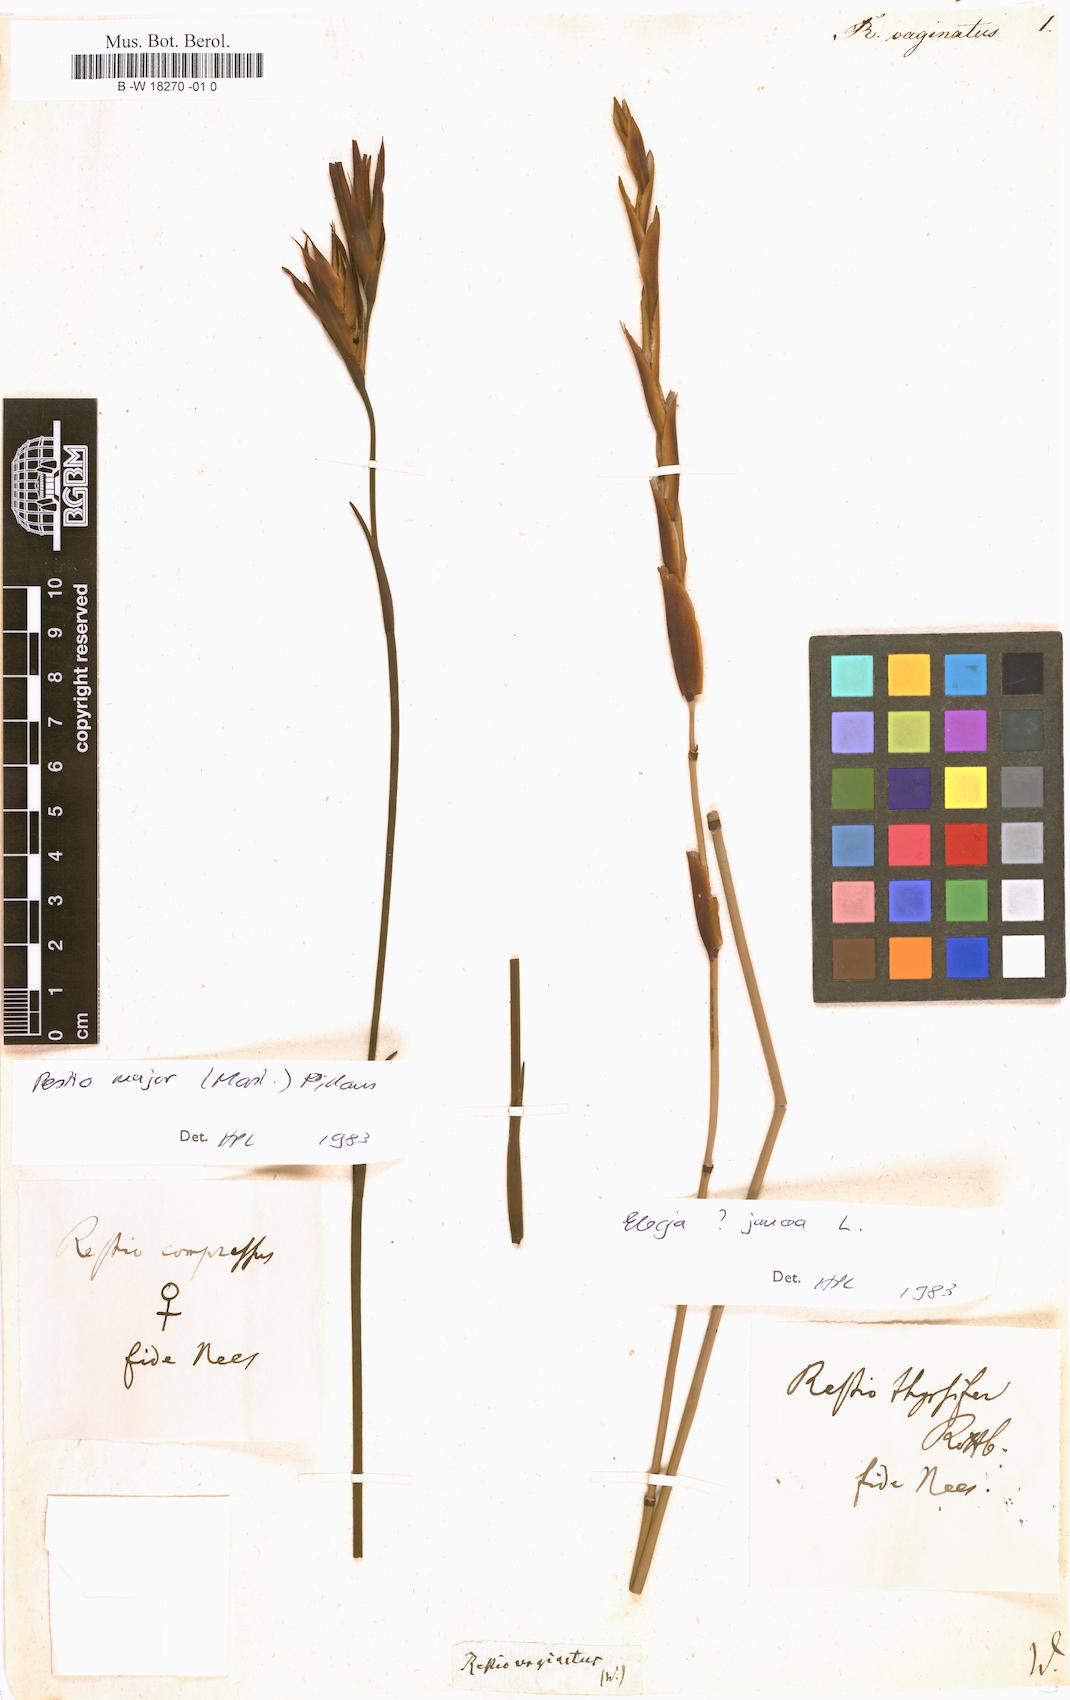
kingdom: Plantae
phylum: Tracheophyta
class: Liliopsida
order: Poales
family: Restionaceae
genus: Staberoha
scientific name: Staberoha vaginata
